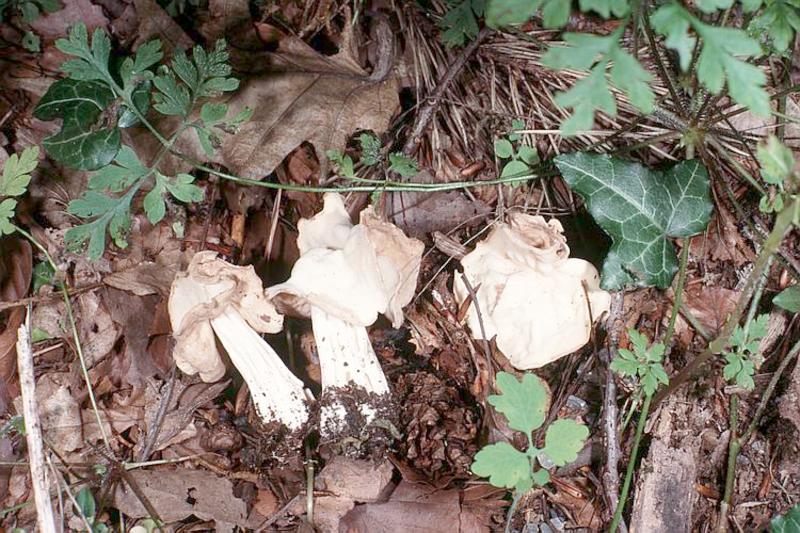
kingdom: Fungi
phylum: Ascomycota
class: Pezizomycetes
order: Pezizales
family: Helvellaceae
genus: Helvella
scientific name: Helvella crispa
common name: White saddle
